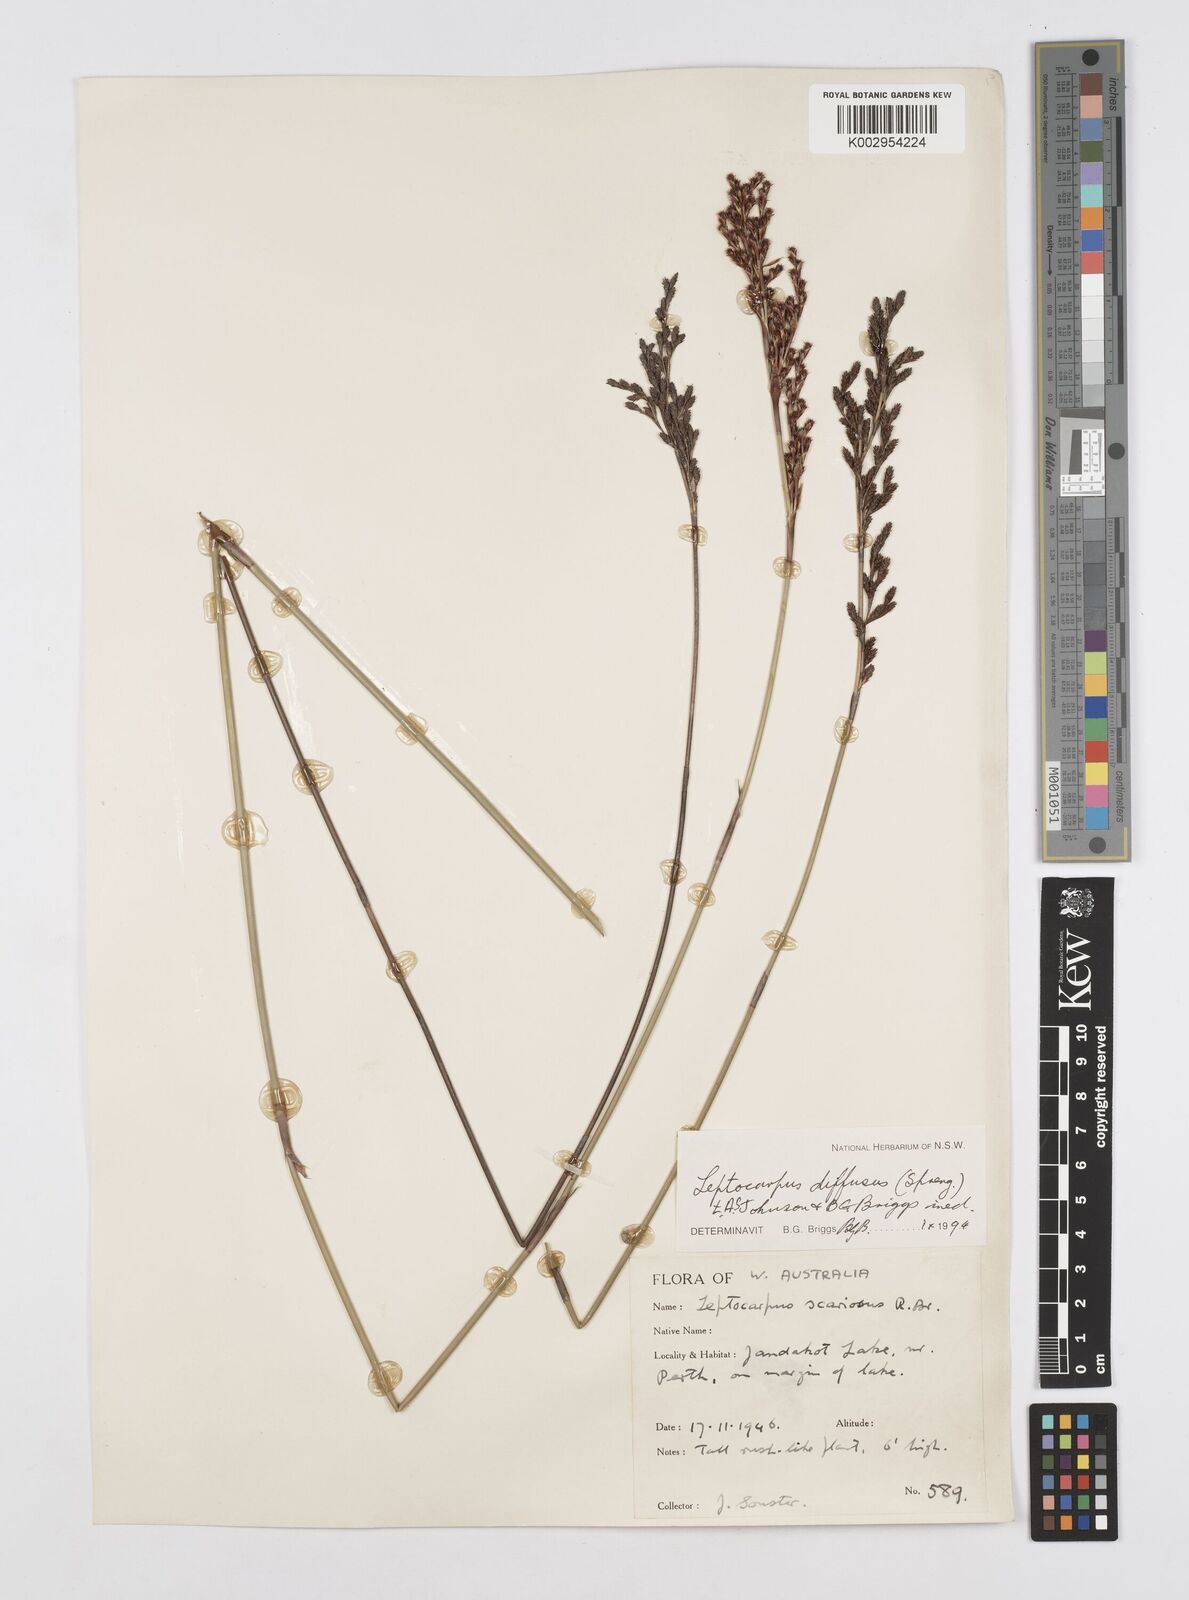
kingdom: Plantae
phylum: Tracheophyta
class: Liliopsida
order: Poales
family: Restionaceae
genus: Leptocarpus
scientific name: Leptocarpus laxus
